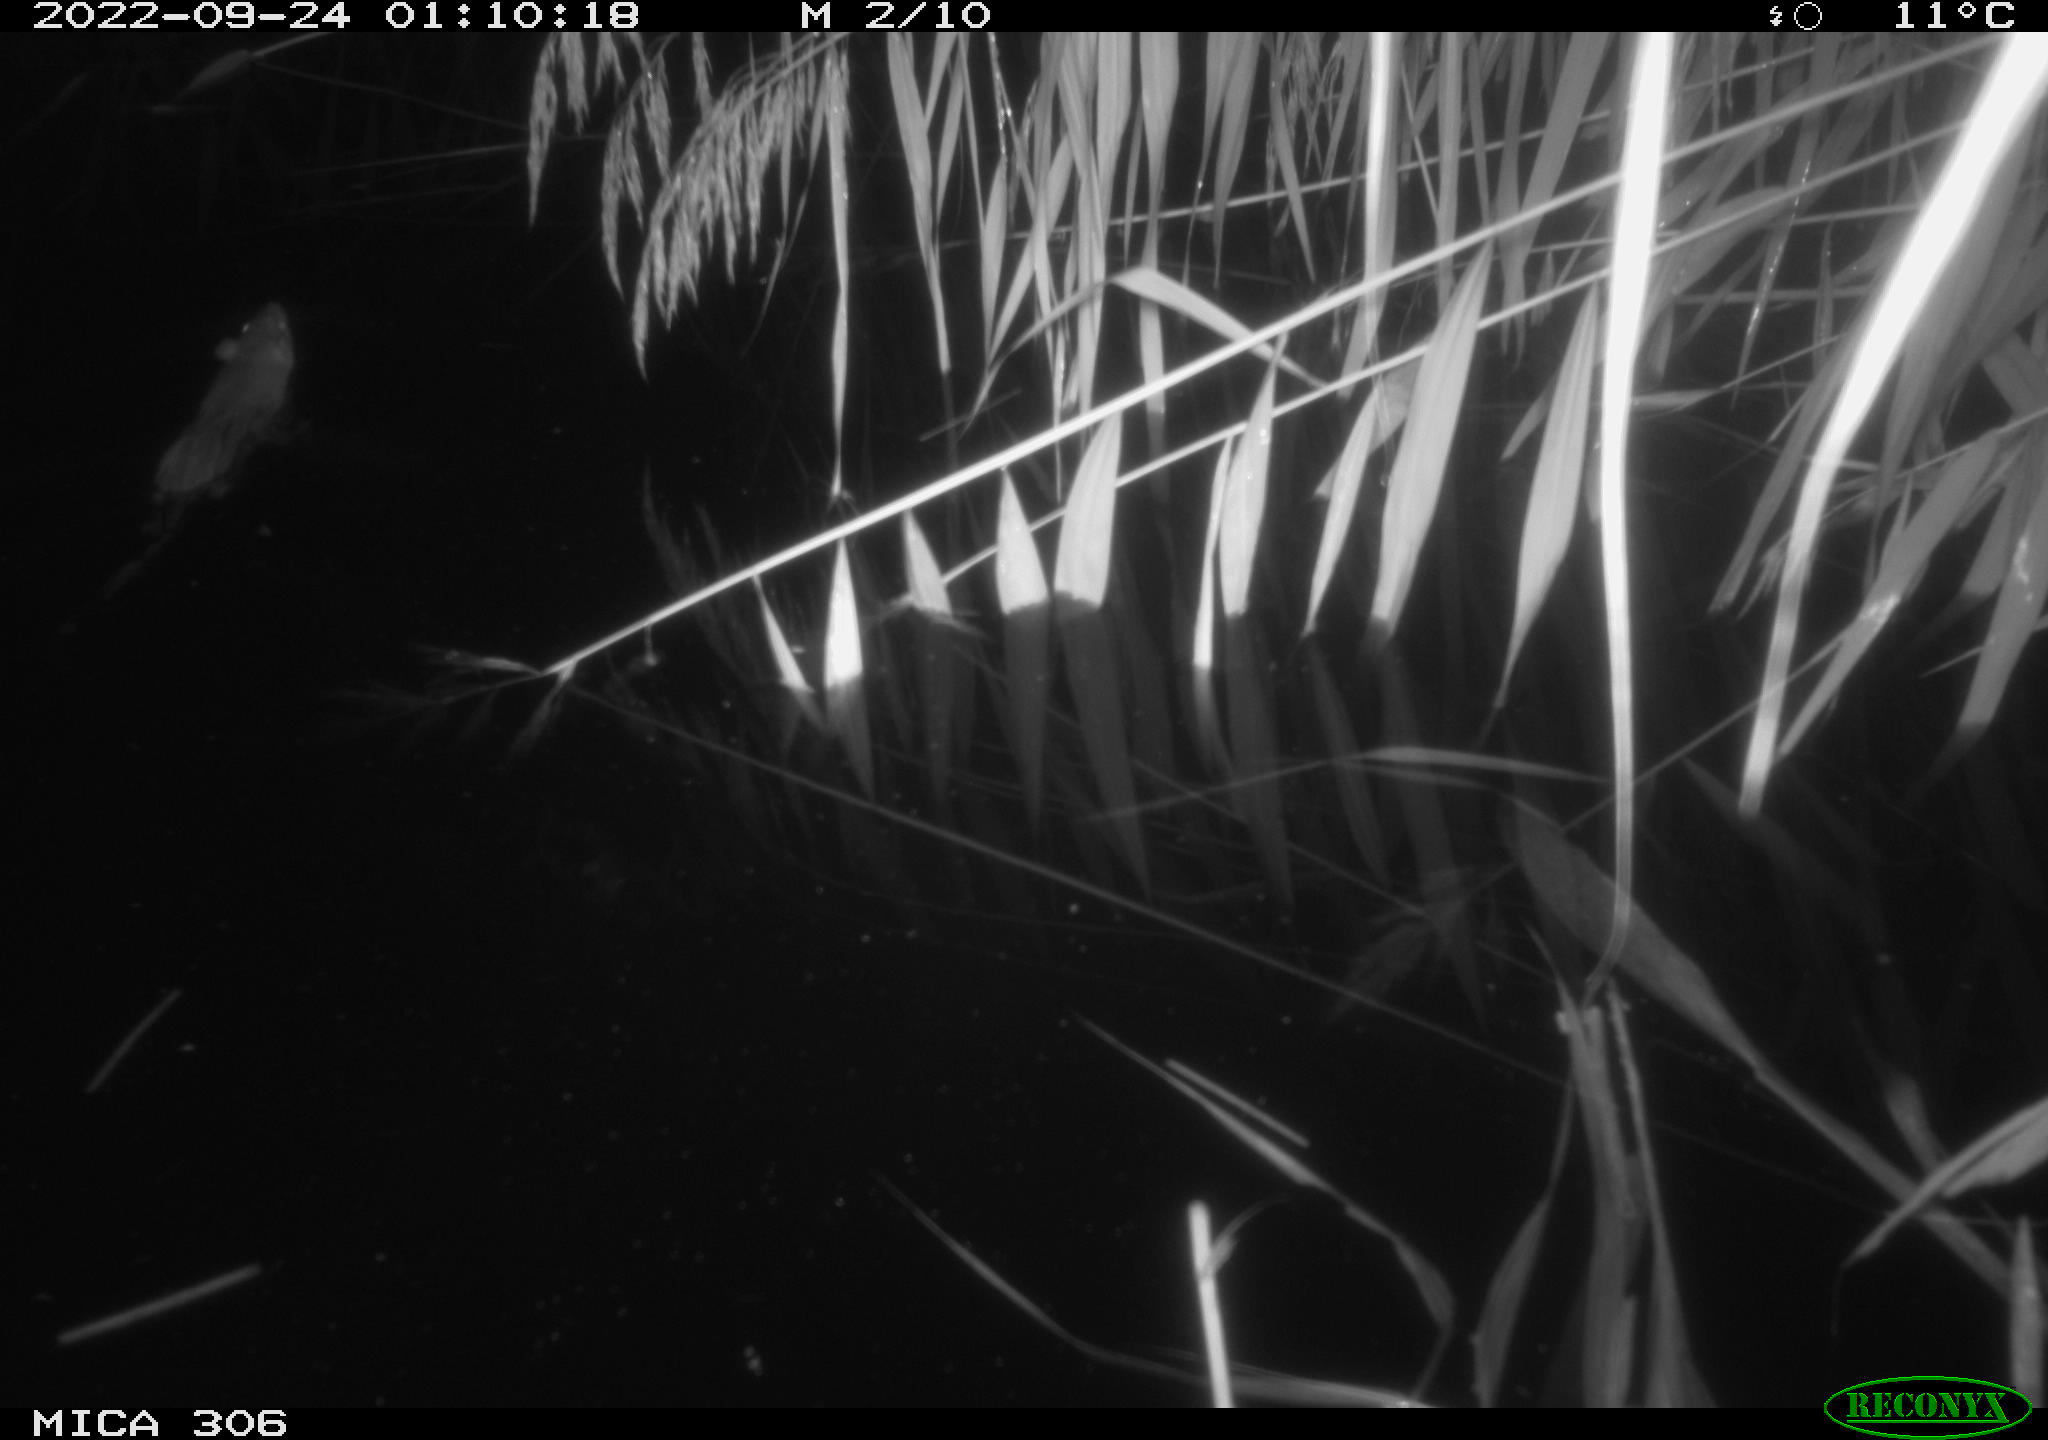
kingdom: Animalia
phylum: Chordata
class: Mammalia
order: Rodentia
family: Muridae
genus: Rattus
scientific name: Rattus norvegicus
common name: Brown rat
